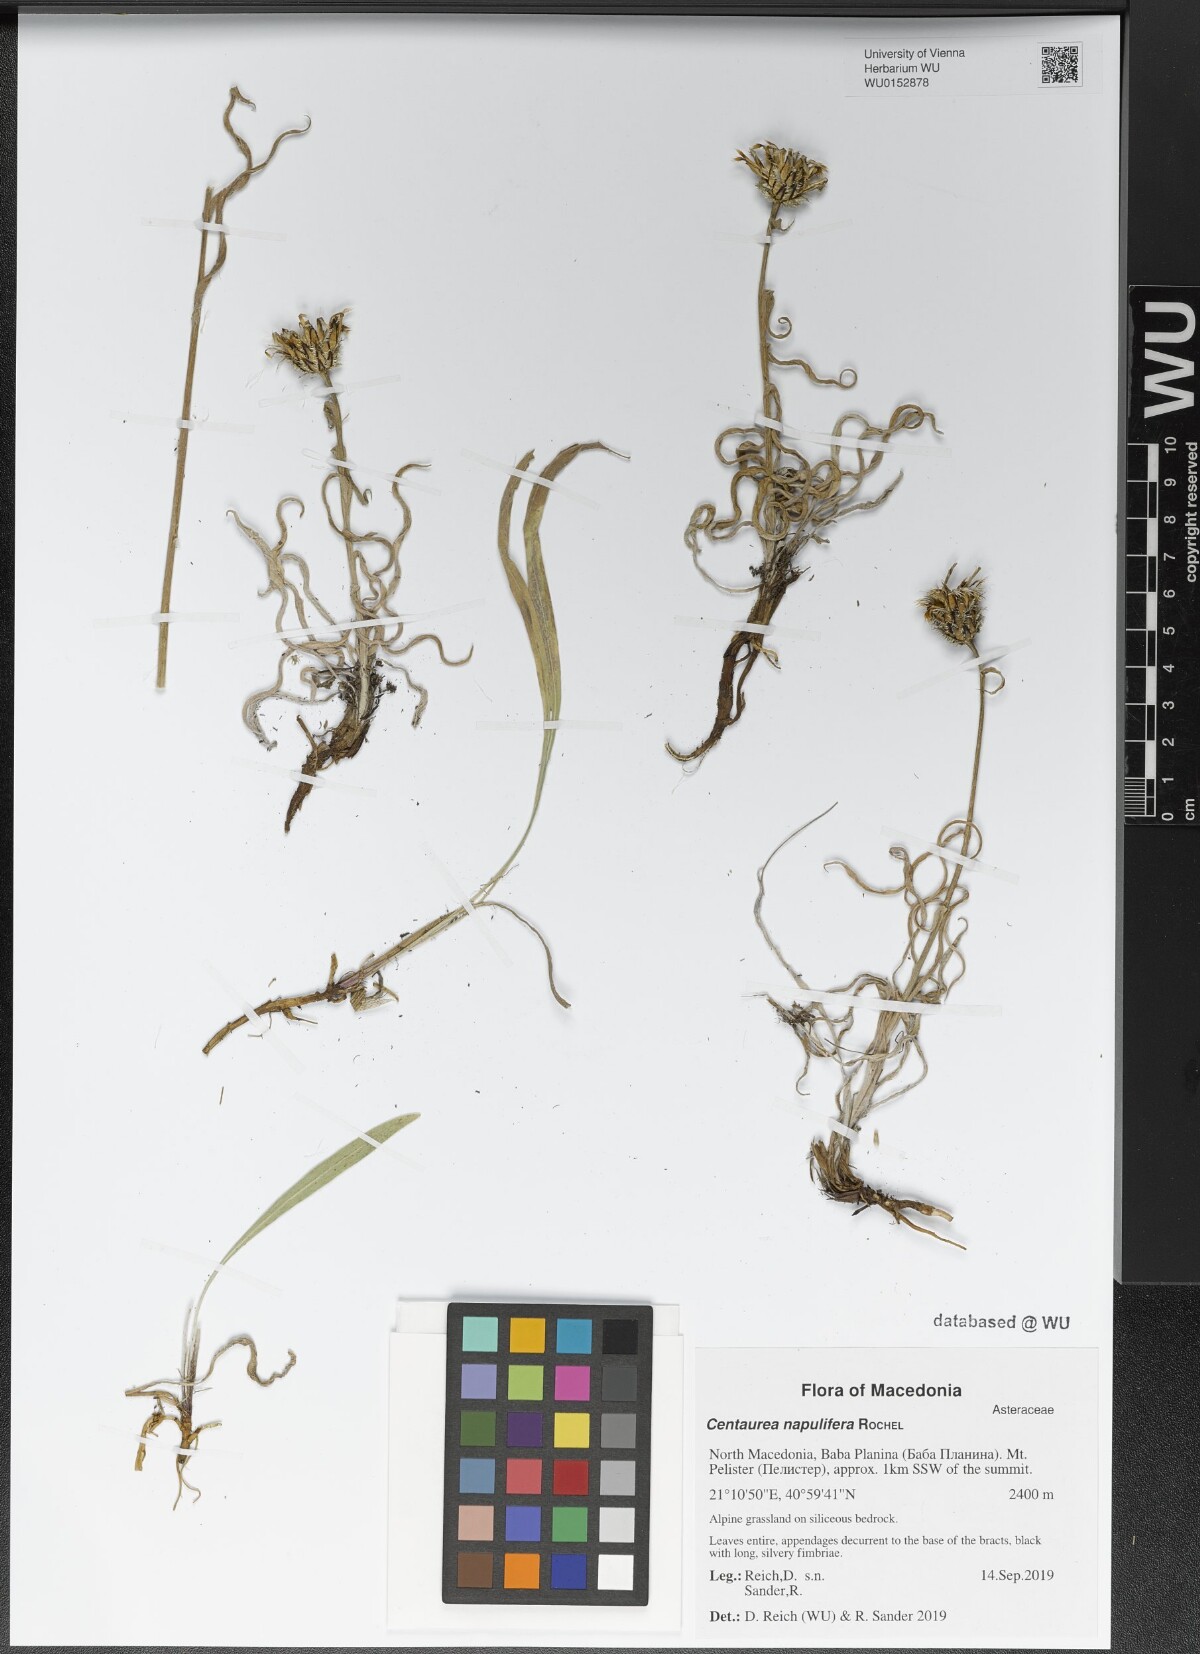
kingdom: Plantae
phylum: Tracheophyta
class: Magnoliopsida
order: Asterales
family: Asteraceae
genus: Centaurea
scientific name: Centaurea napulifera
